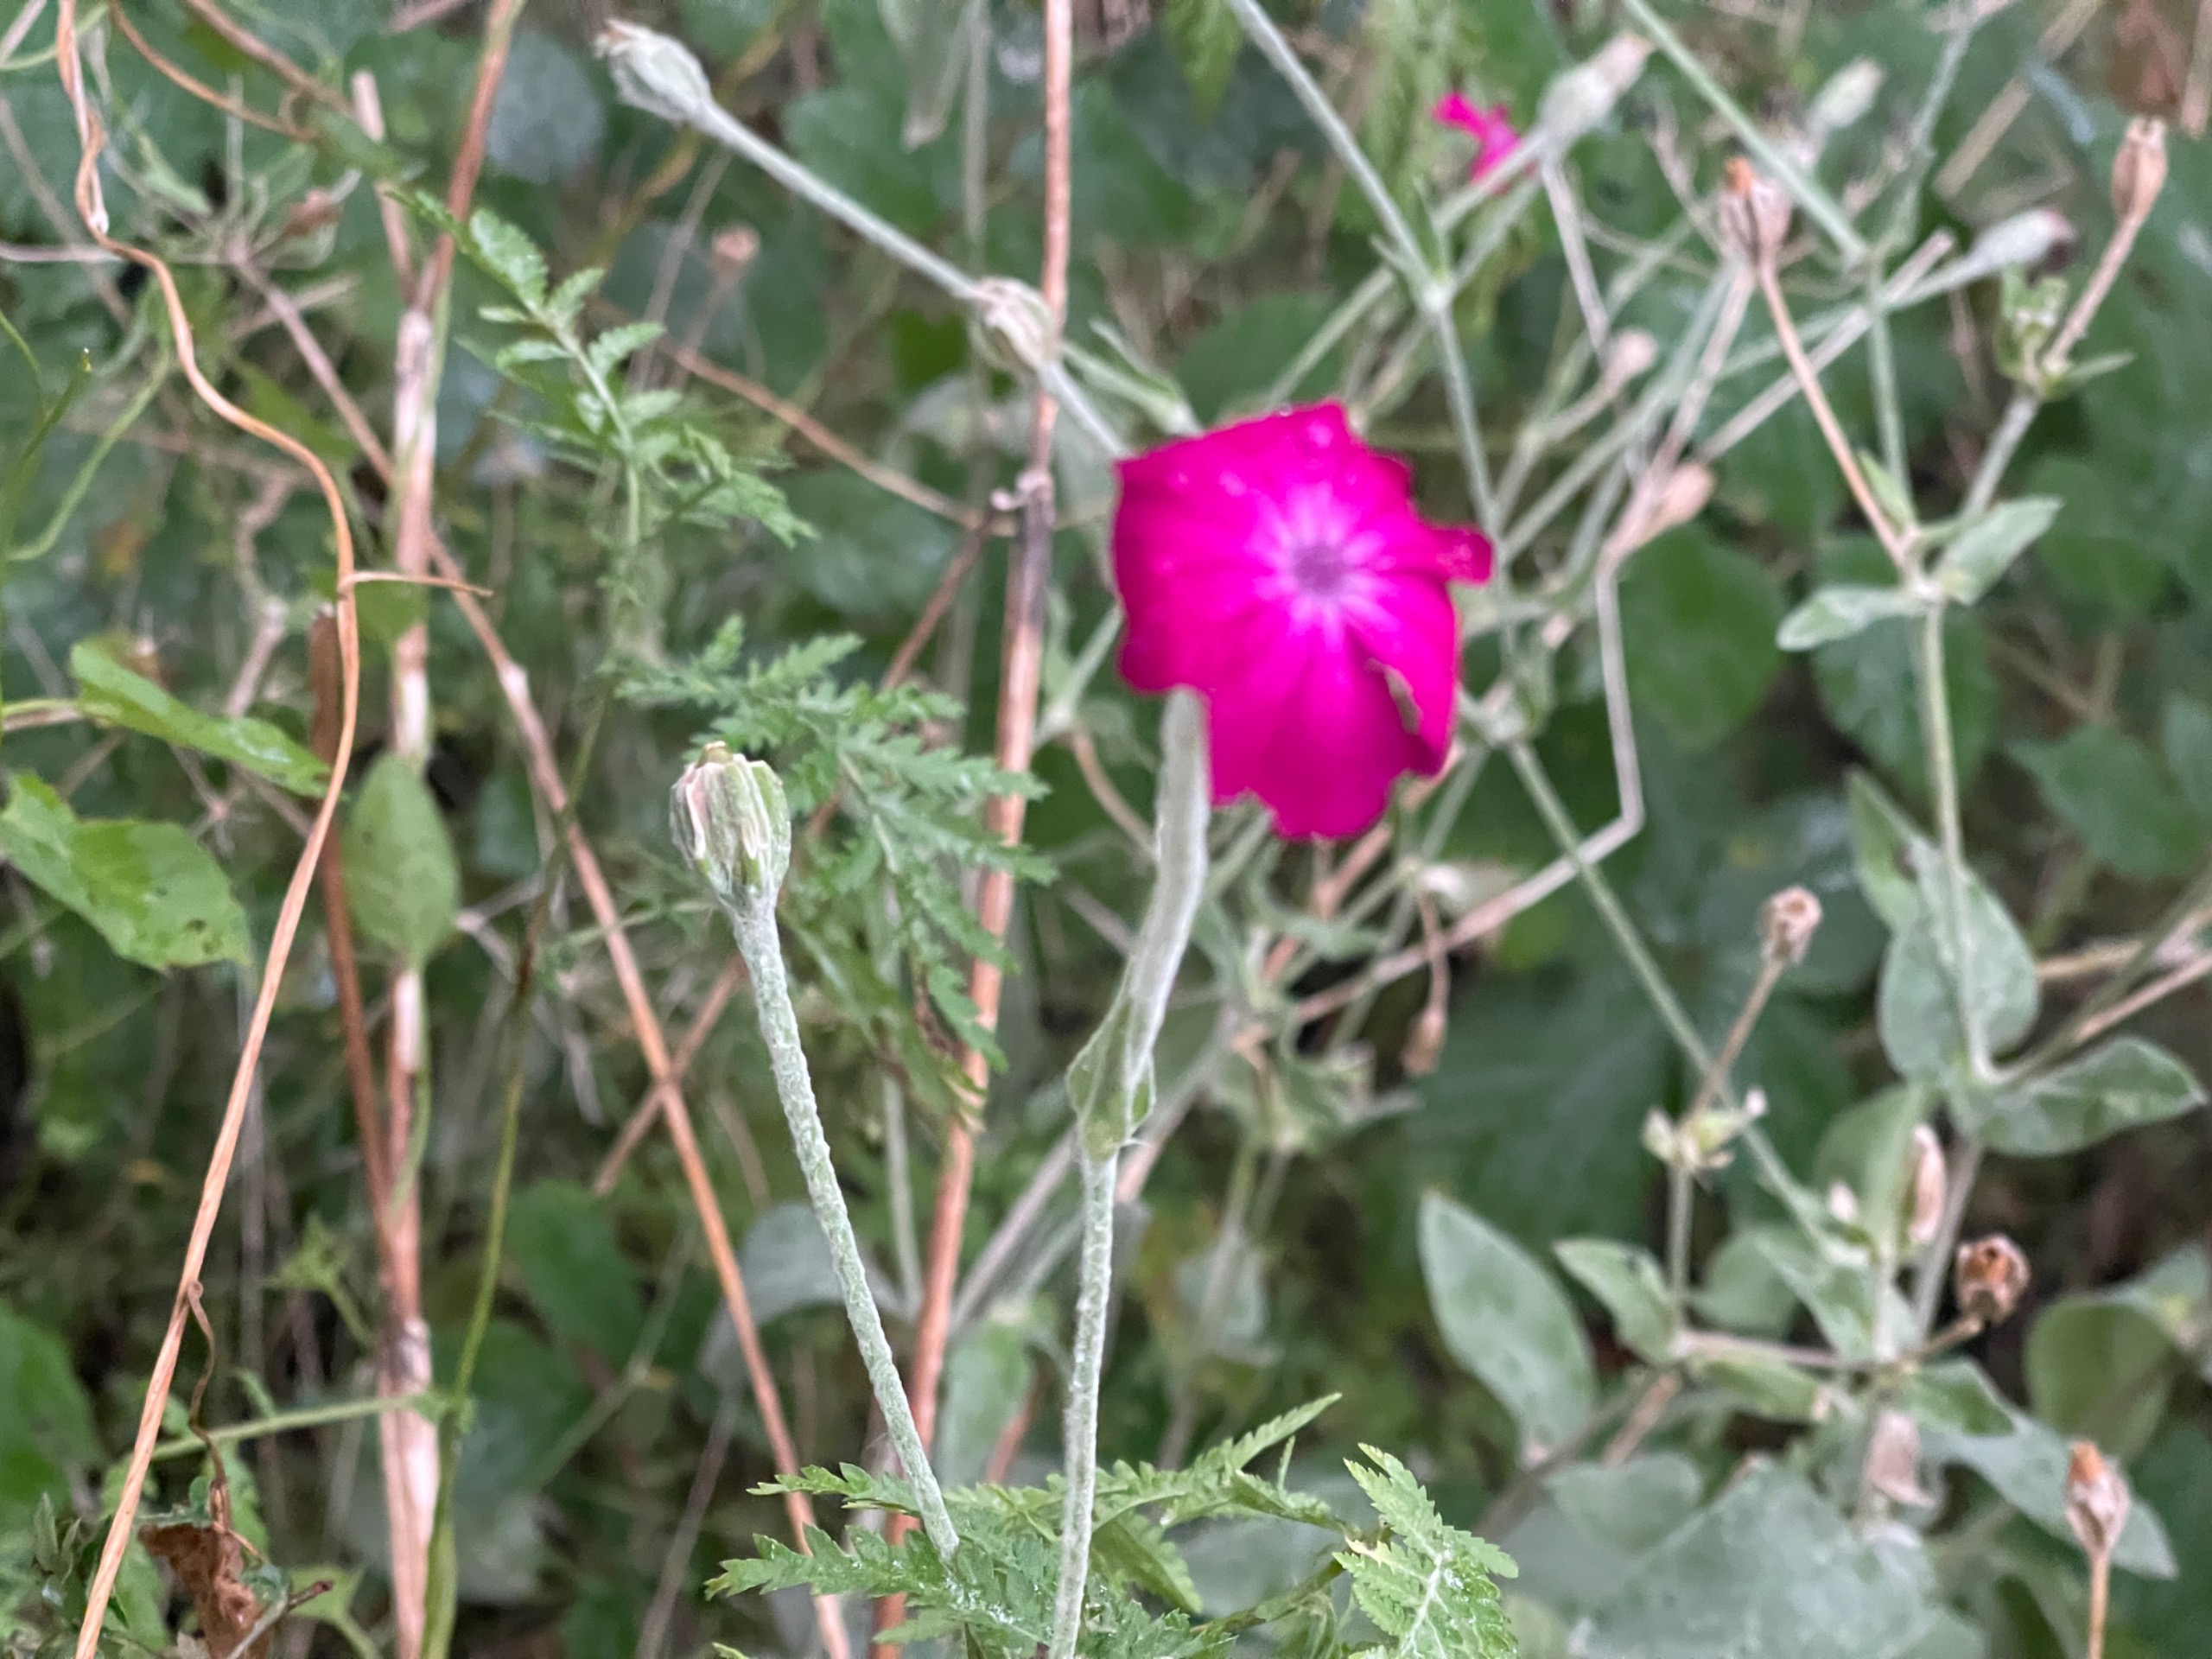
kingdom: Plantae
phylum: Tracheophyta
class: Magnoliopsida
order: Caryophyllales
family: Caryophyllaceae
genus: Silene
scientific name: Silene coronaria
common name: Fiksernellike
